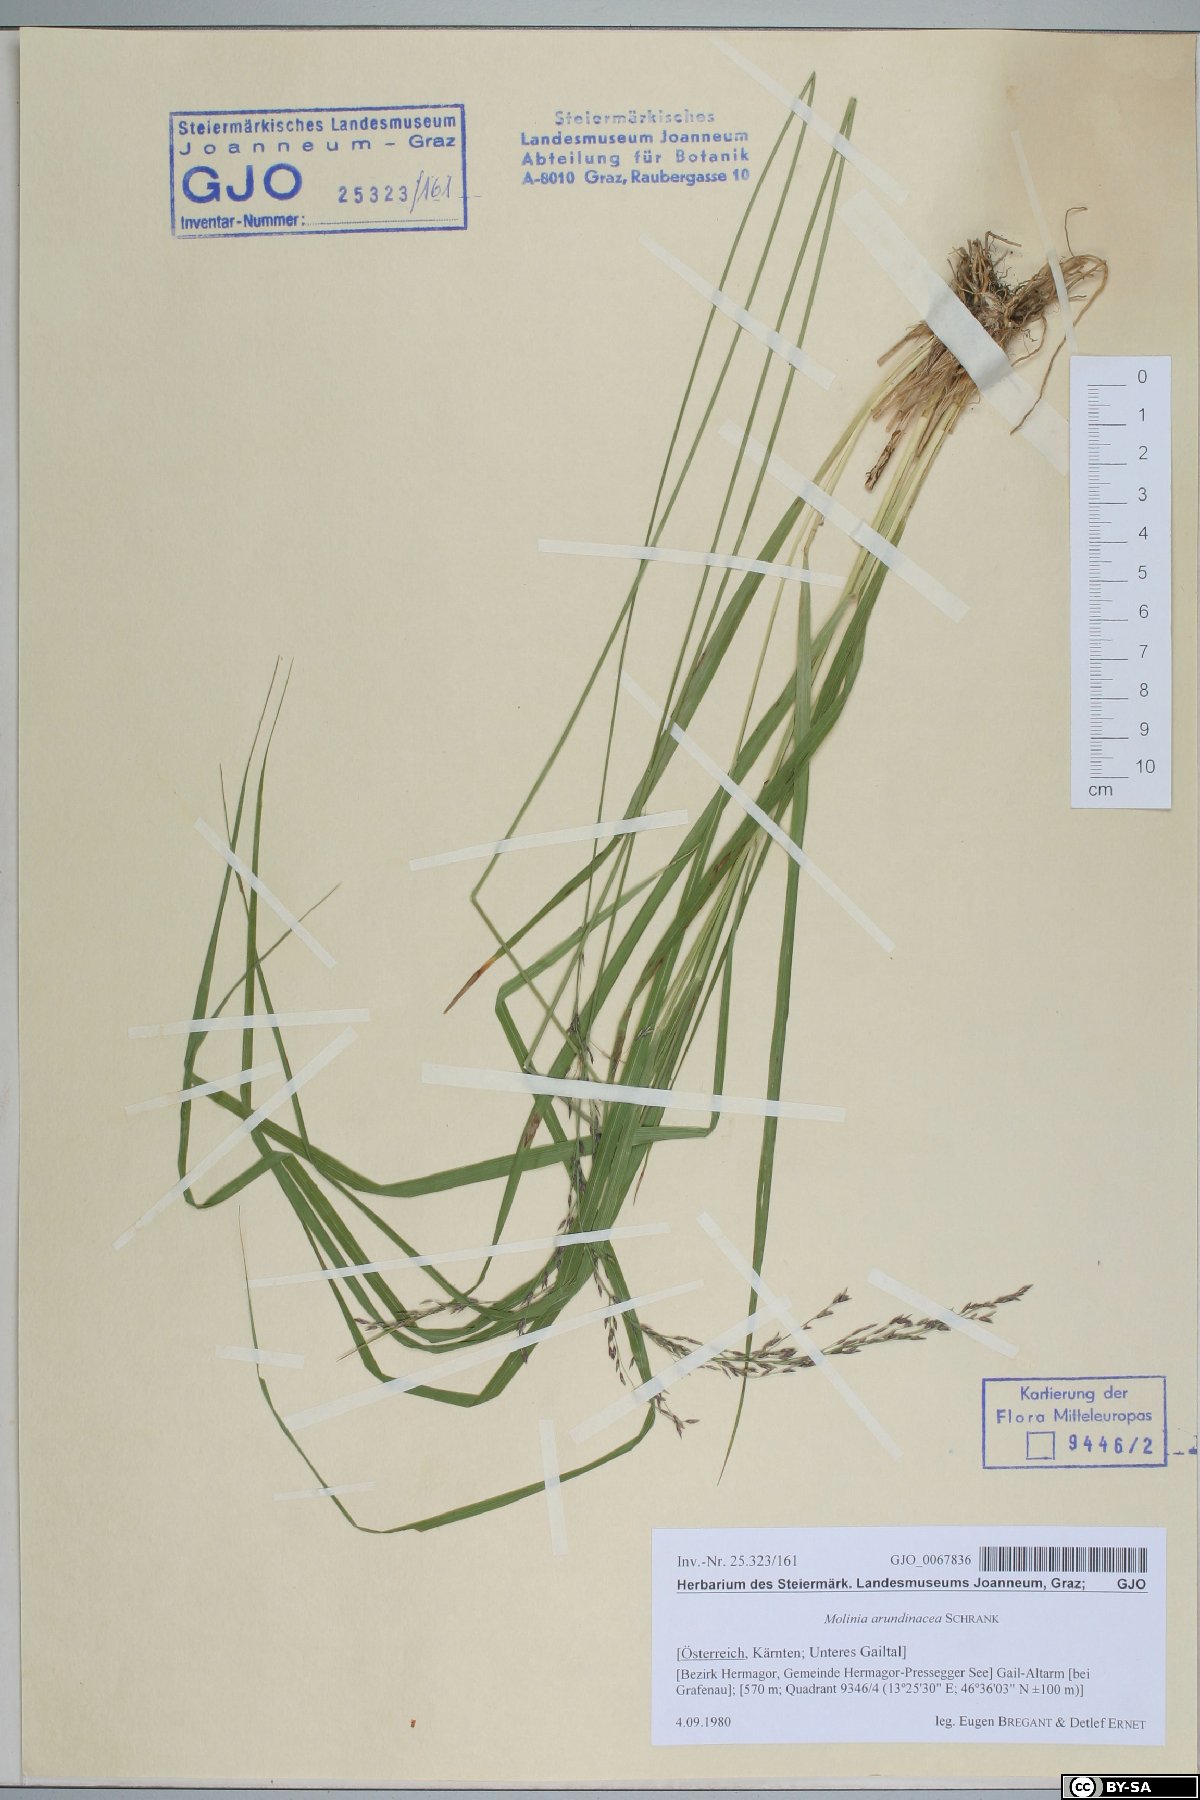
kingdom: Plantae
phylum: Tracheophyta
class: Liliopsida
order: Poales
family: Poaceae
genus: Molinia
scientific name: Molinia arundinacea
